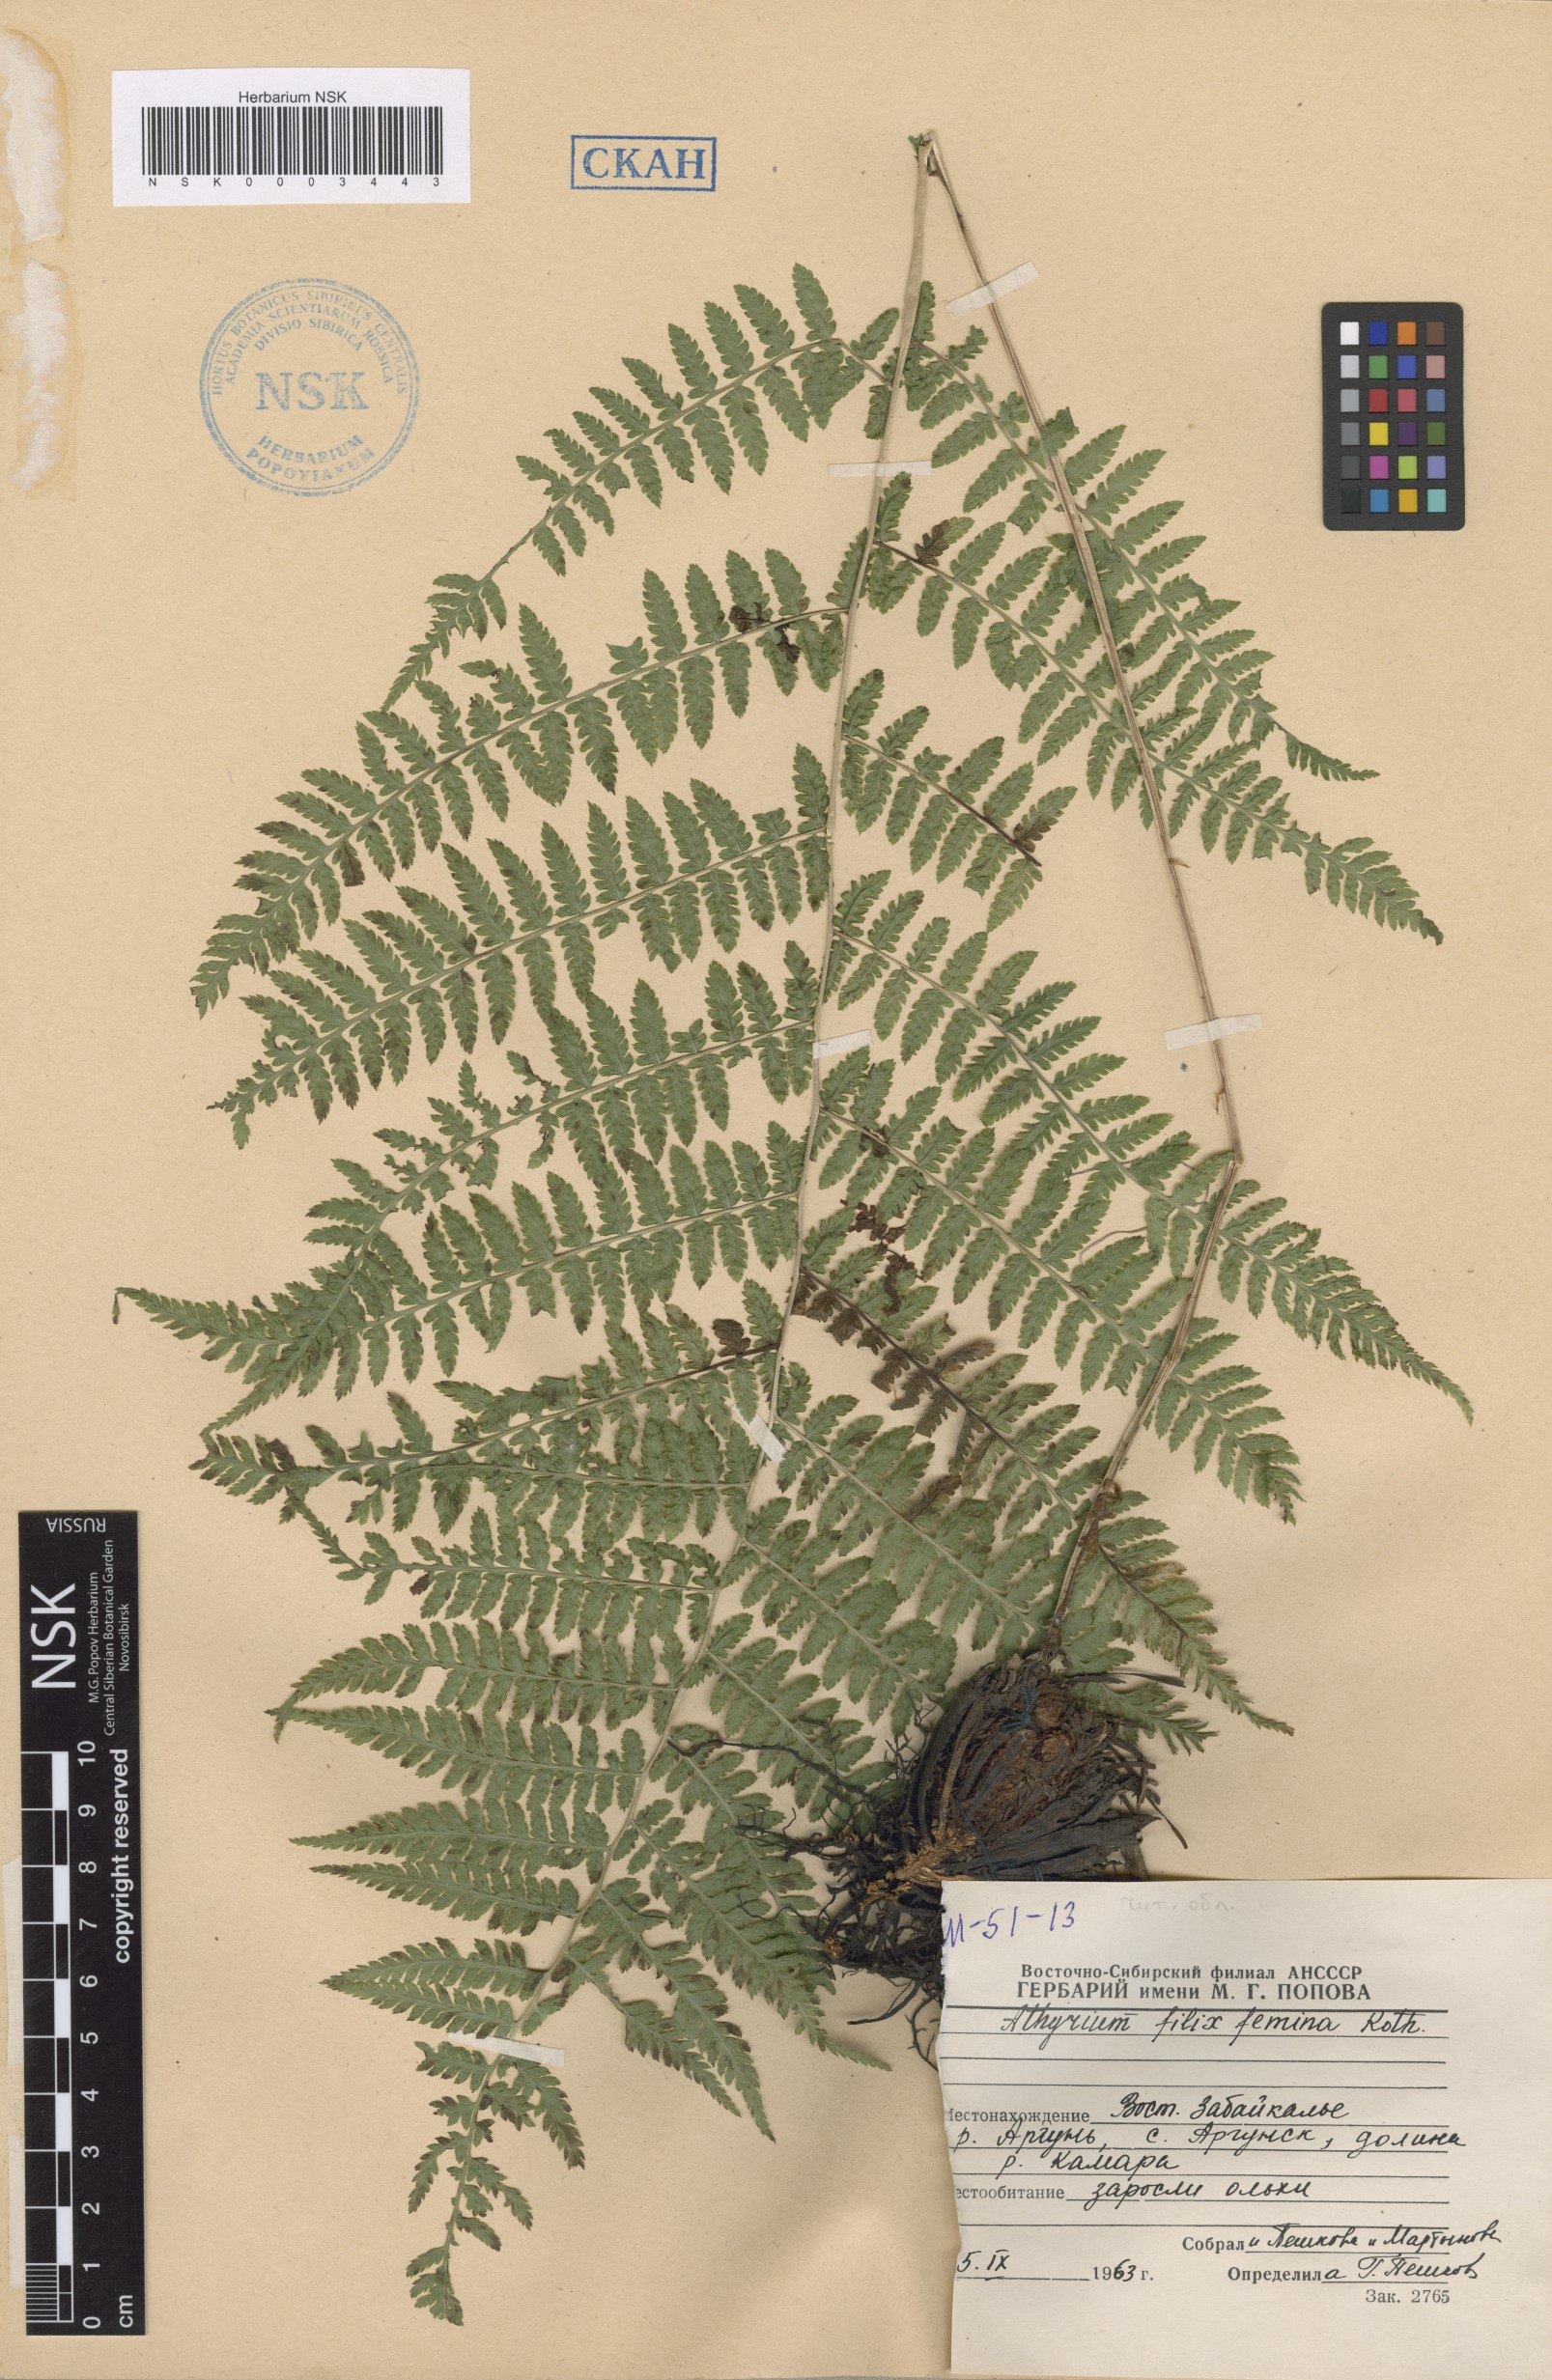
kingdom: Plantae
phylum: Tracheophyta
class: Polypodiopsida
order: Polypodiales
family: Athyriaceae
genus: Athyrium
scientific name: Athyrium filix-femina
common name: Lady fern
